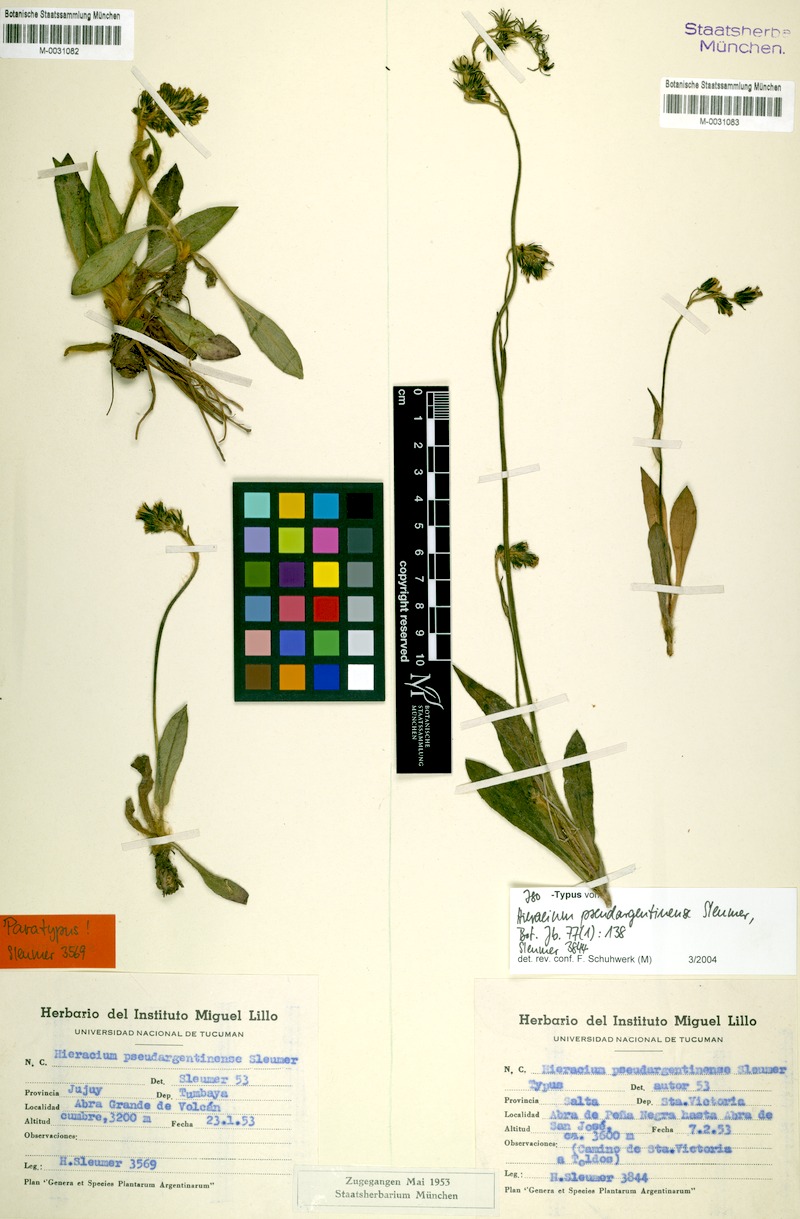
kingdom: Plantae
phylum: Tracheophyta
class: Magnoliopsida
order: Asterales
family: Asteraceae
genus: Hieracium
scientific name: Hieracium mandonii
